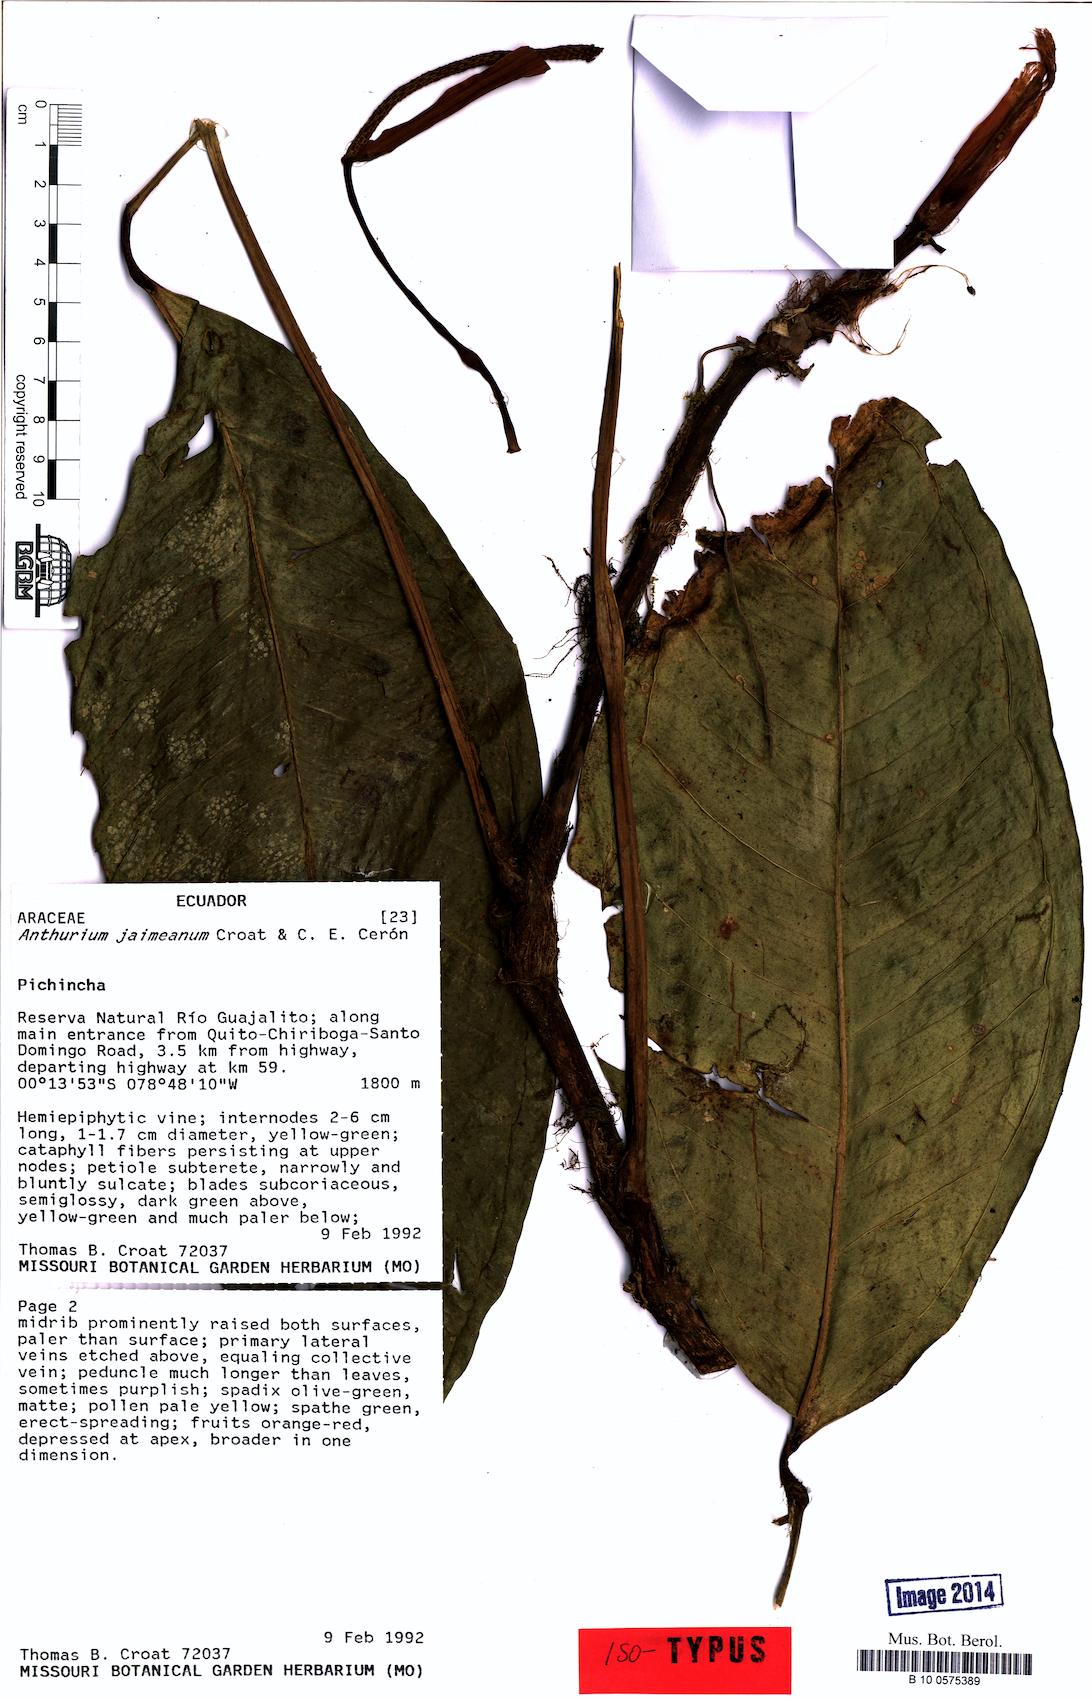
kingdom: Plantae
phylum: Tracheophyta
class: Liliopsida
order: Alismatales
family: Araceae
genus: Anthurium
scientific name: Anthurium jaimeanum
